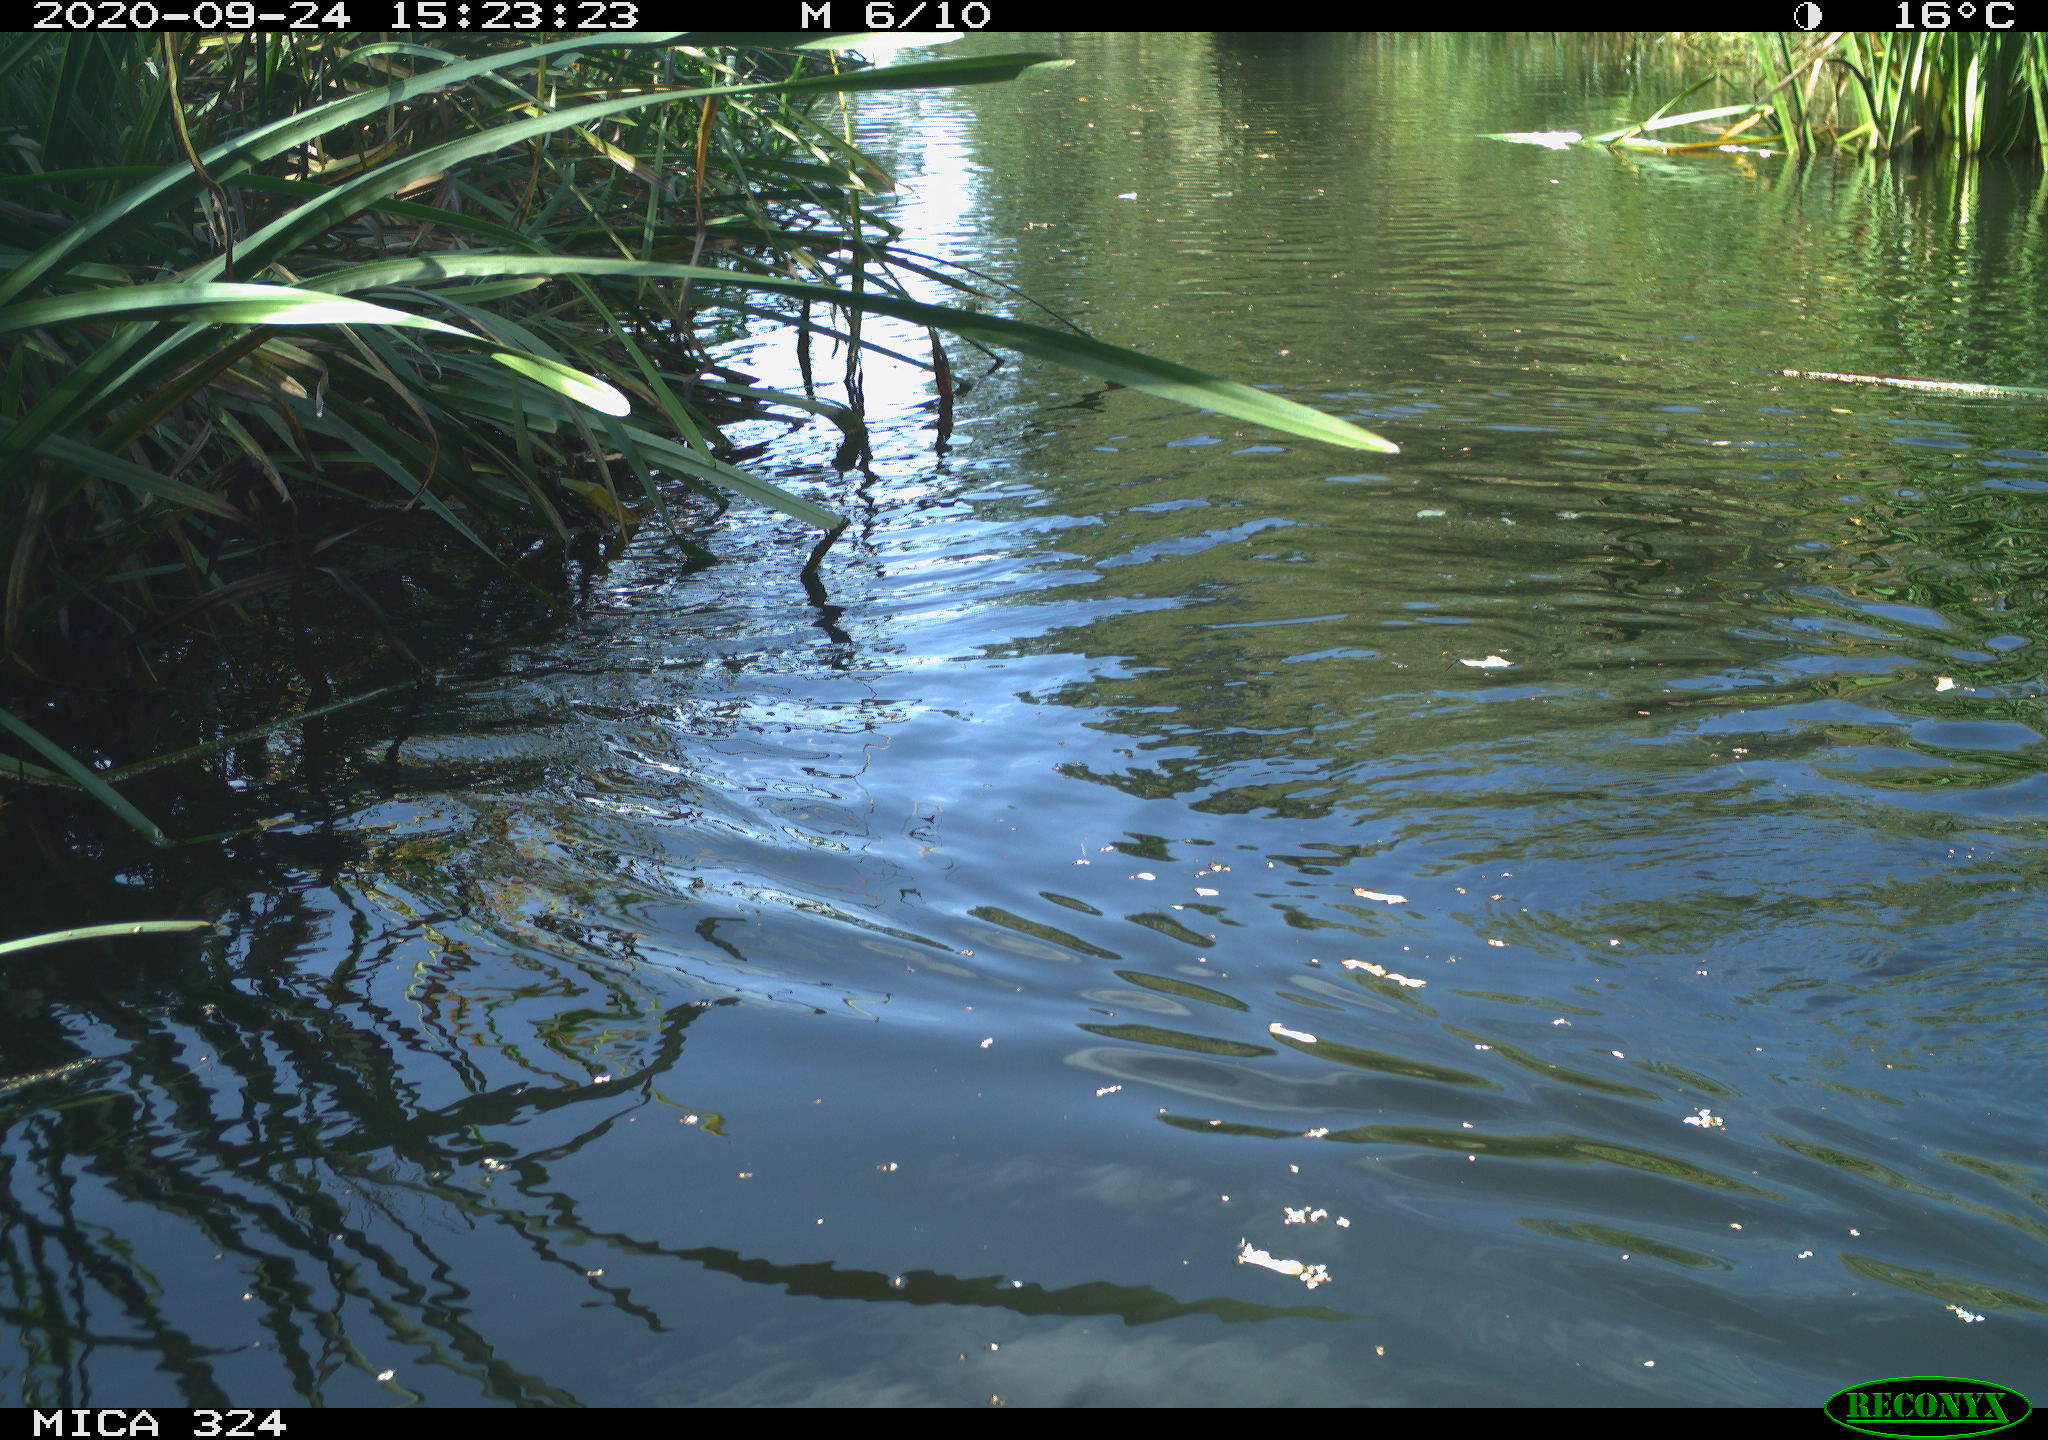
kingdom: Animalia
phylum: Chordata
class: Mammalia
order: Rodentia
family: Cricetidae
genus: Ondatra
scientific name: Ondatra zibethicus
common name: Muskrat
